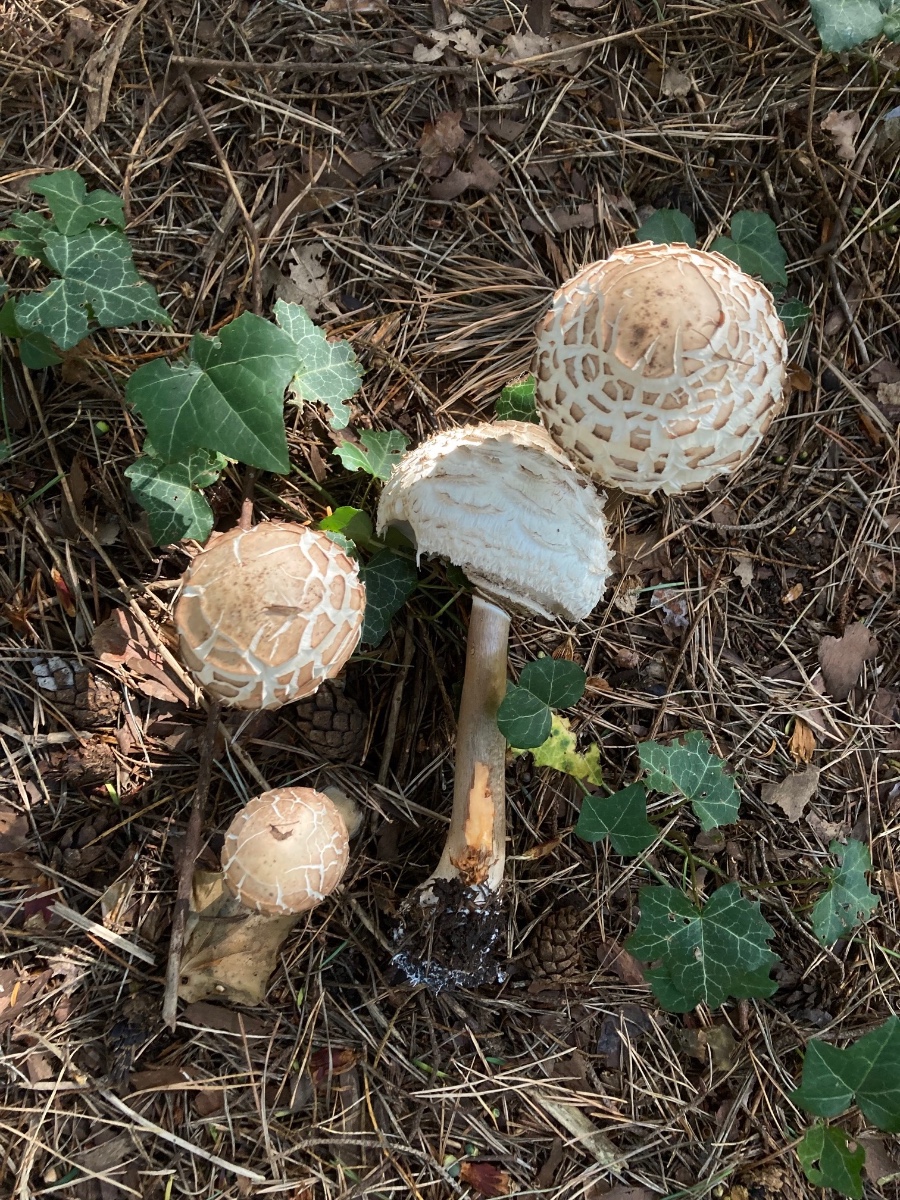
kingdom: Fungi
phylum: Basidiomycota
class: Agaricomycetes
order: Agaricales
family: Agaricaceae
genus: Chlorophyllum
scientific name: Chlorophyllum rhacodes
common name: ægte rabarberhat
